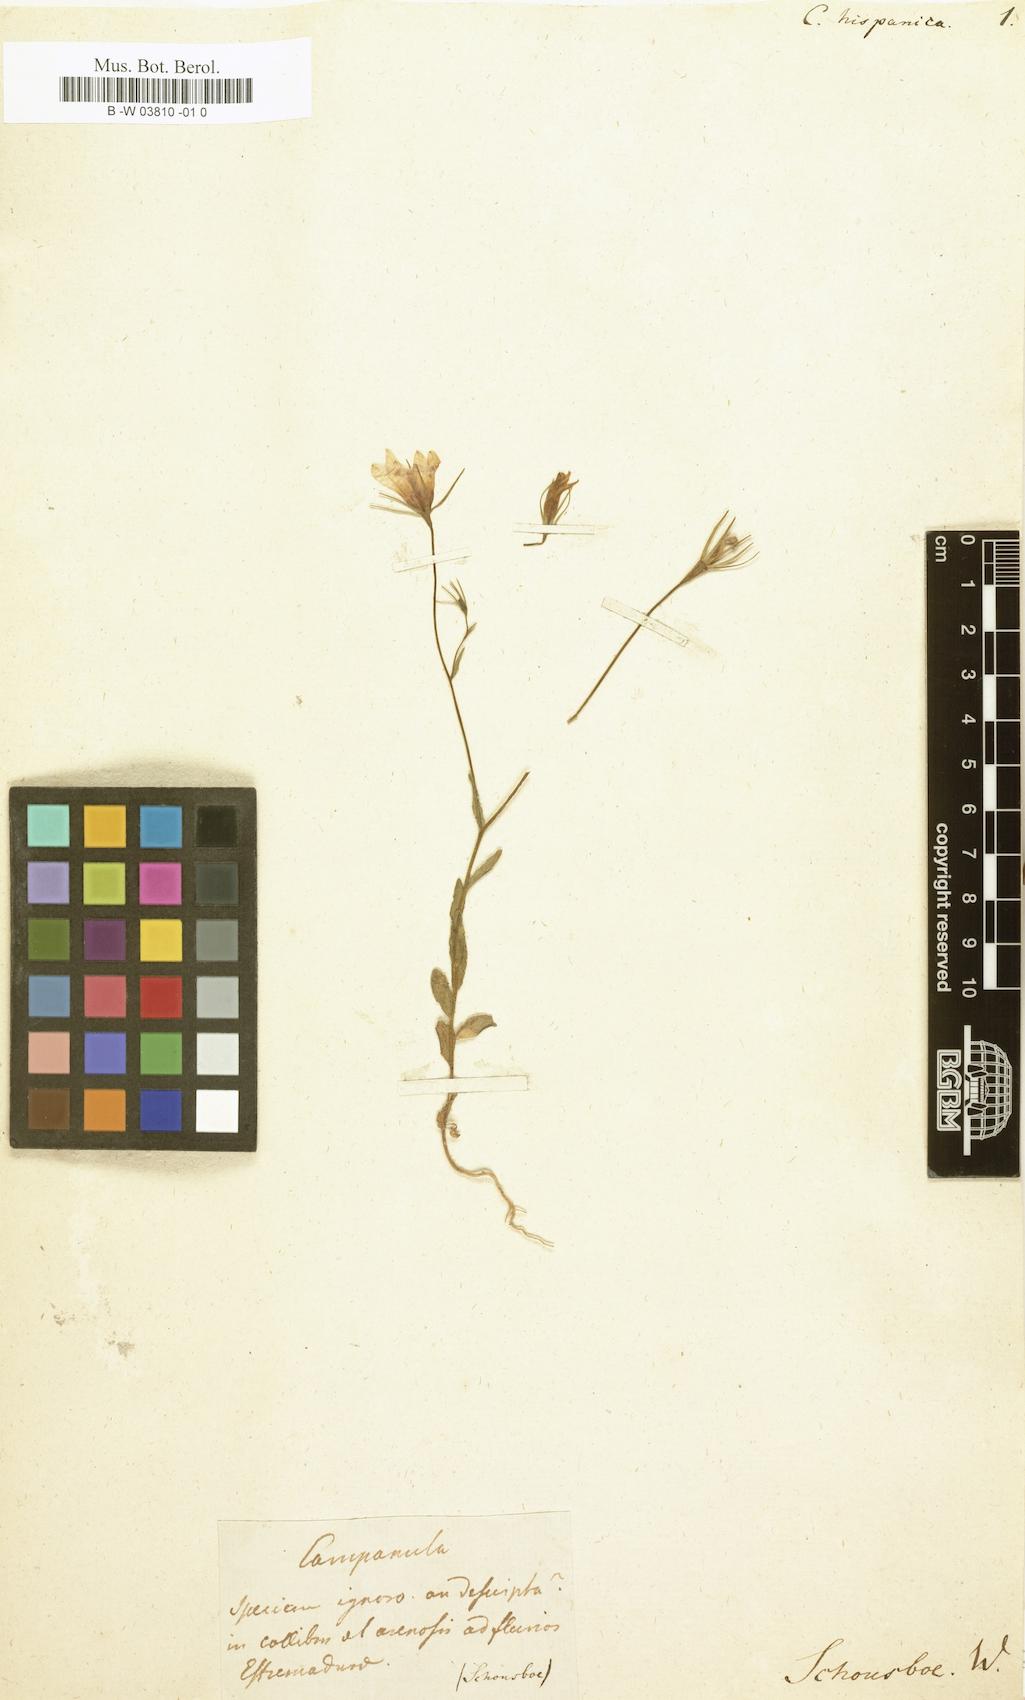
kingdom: Plantae
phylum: Tracheophyta
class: Magnoliopsida
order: Asterales
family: Campanulaceae
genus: Campanula
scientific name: Campanula hispanica
